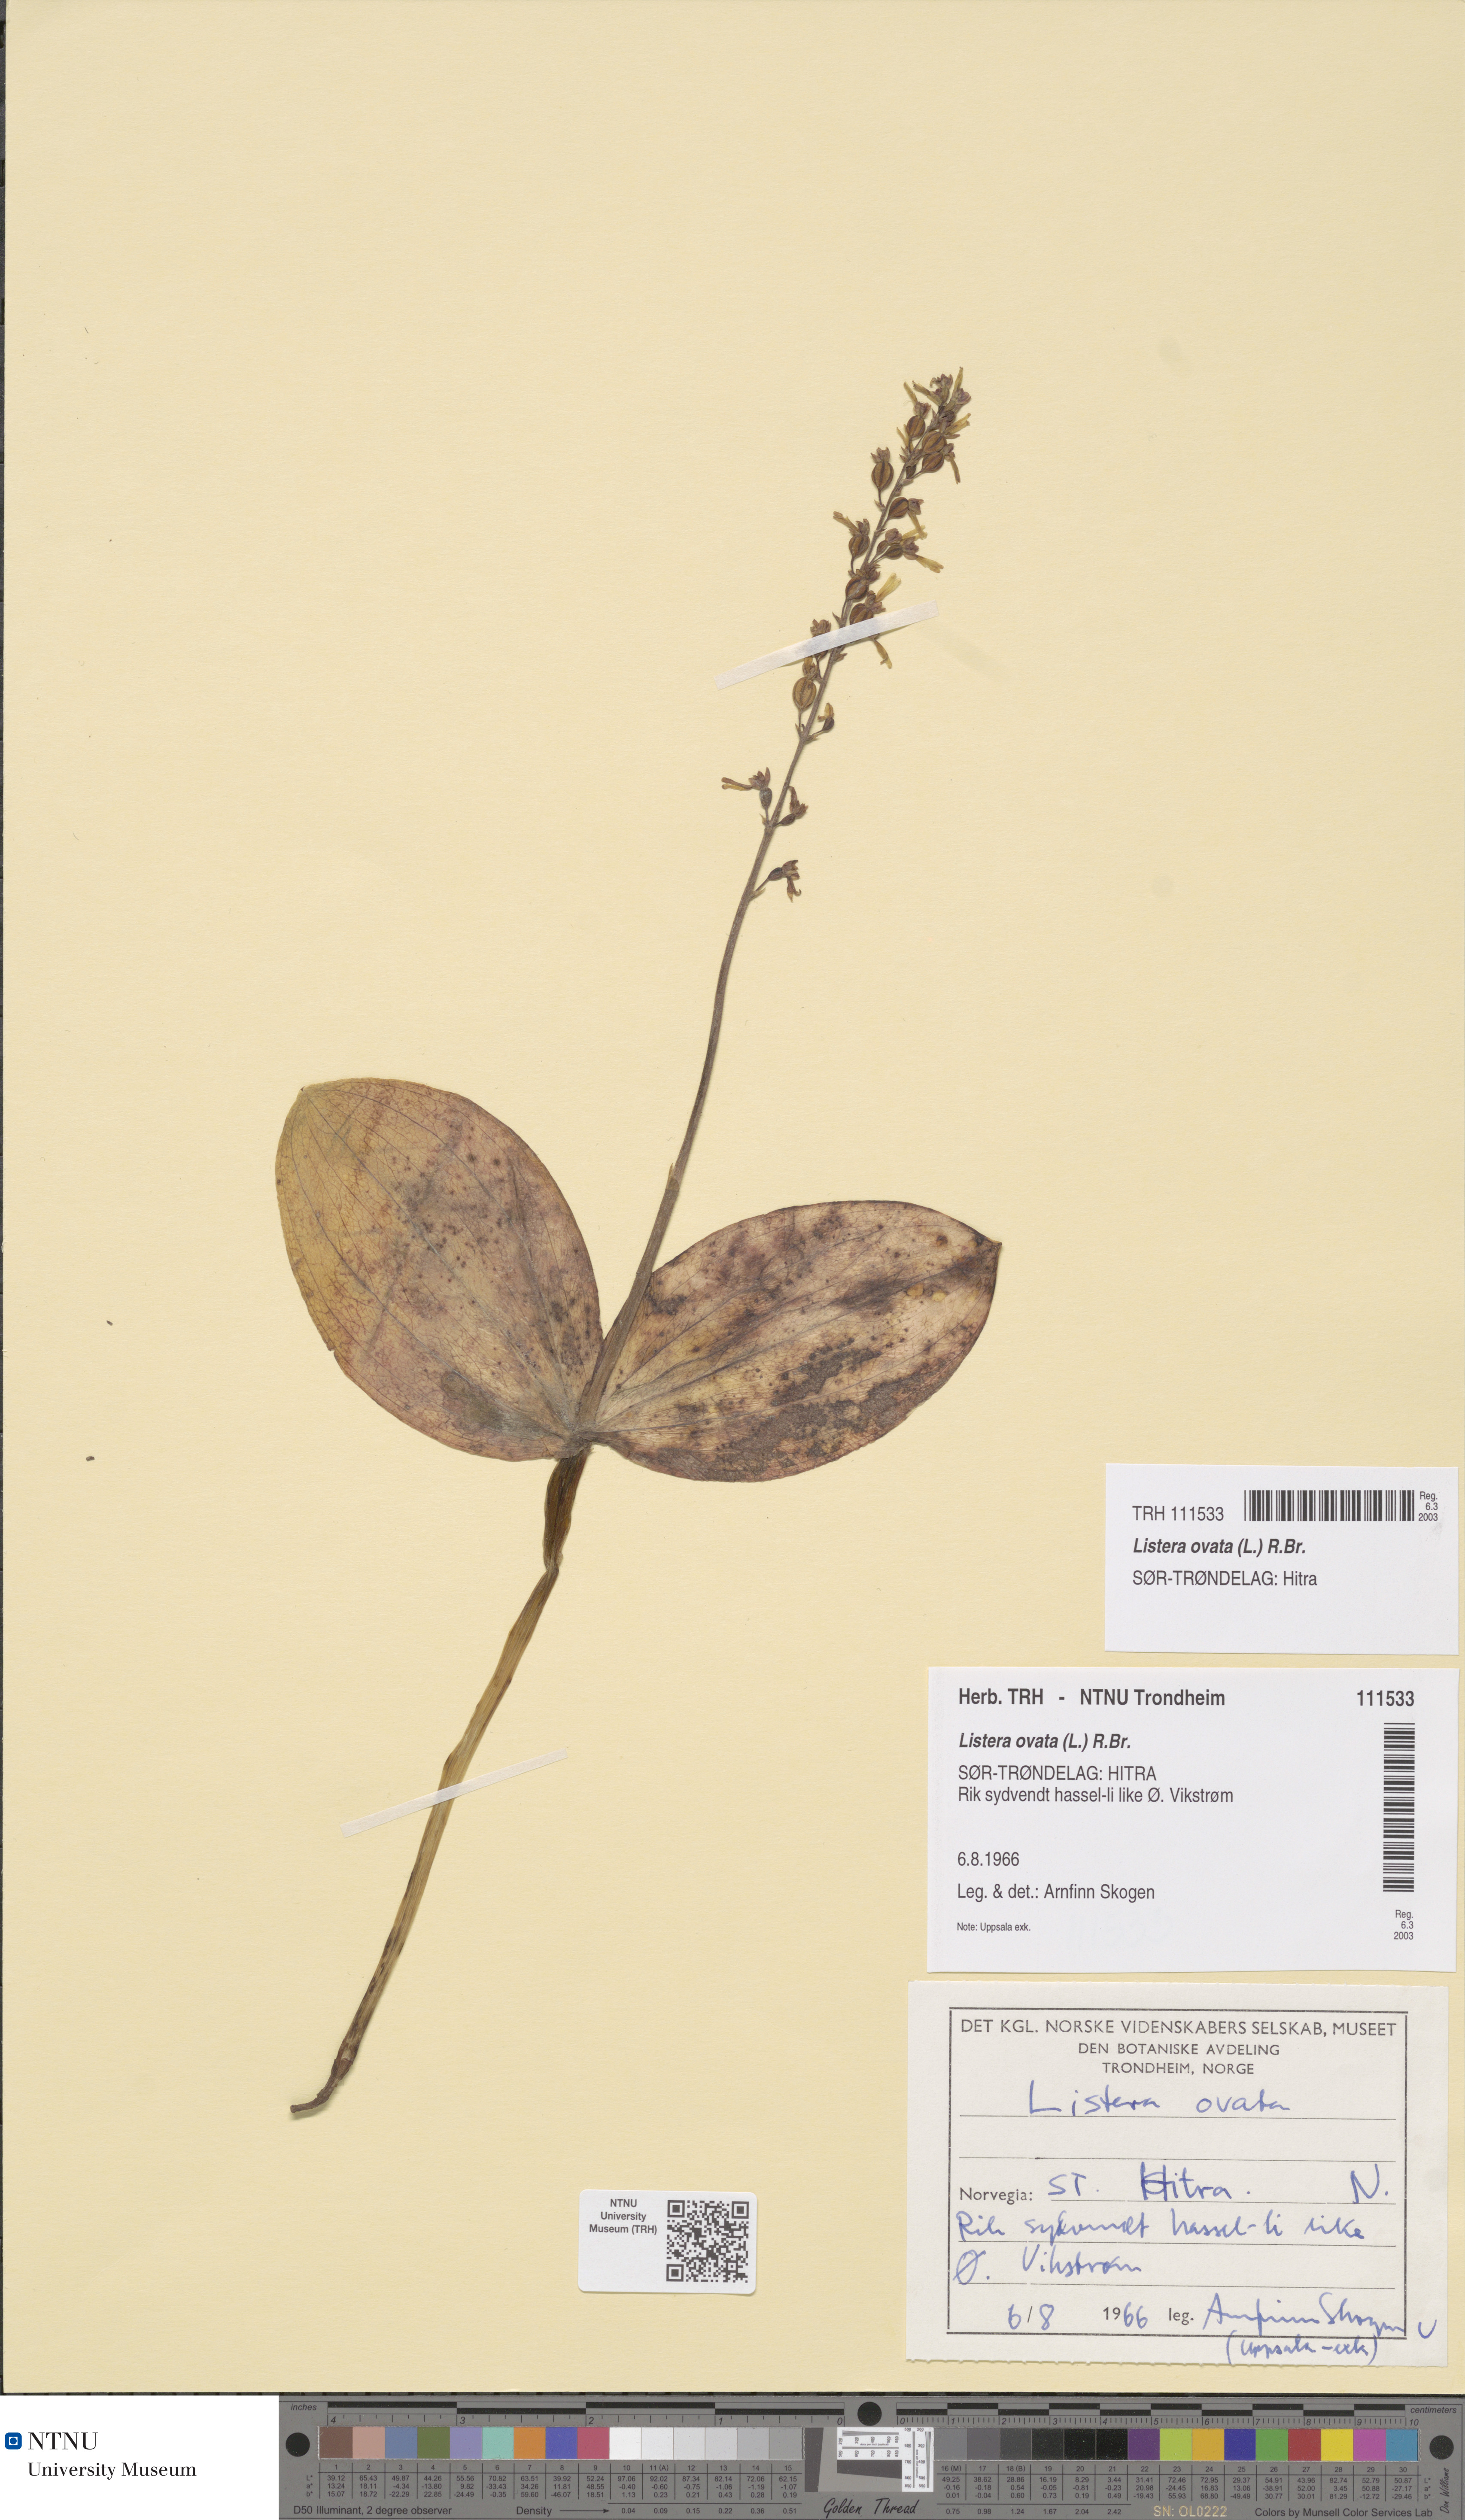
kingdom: Plantae
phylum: Tracheophyta
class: Liliopsida
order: Asparagales
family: Orchidaceae
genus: Neottia
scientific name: Neottia ovata
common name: Common twayblade
